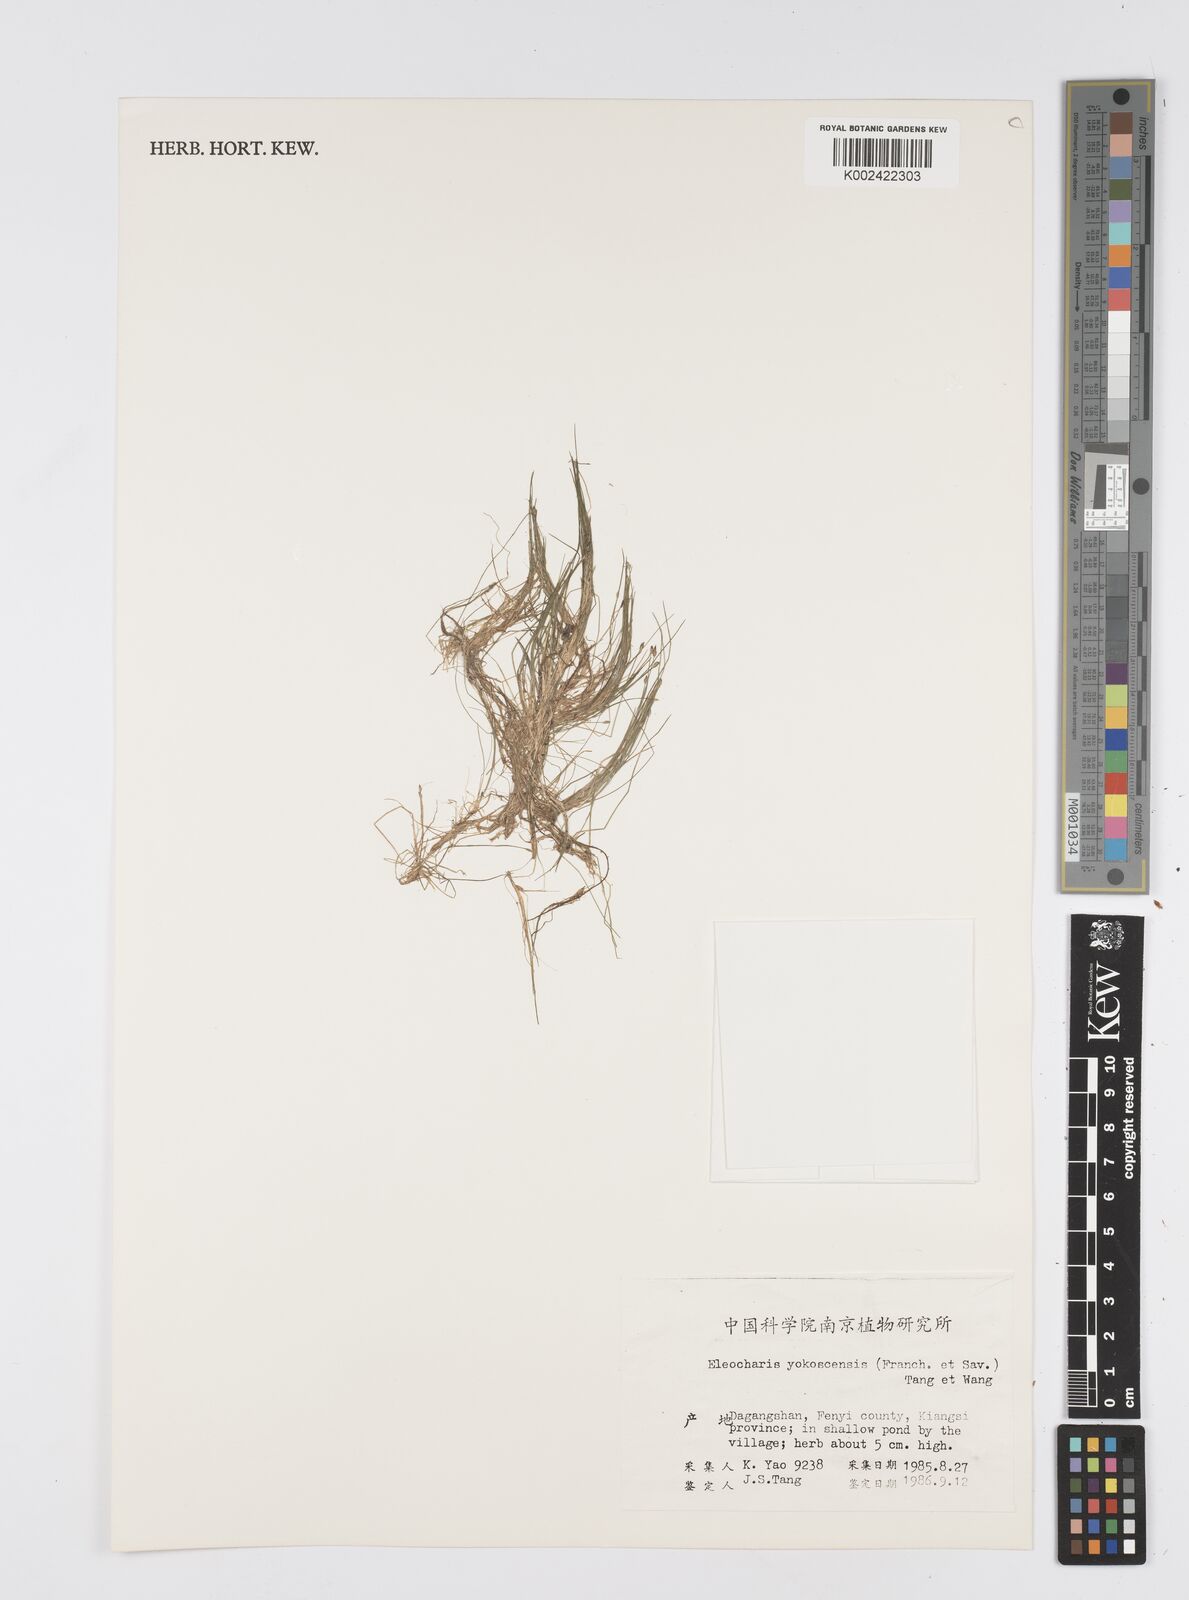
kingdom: Plantae
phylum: Tracheophyta
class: Liliopsida
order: Poales
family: Cyperaceae
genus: Eleocharis
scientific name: Eleocharis yokoscensis
